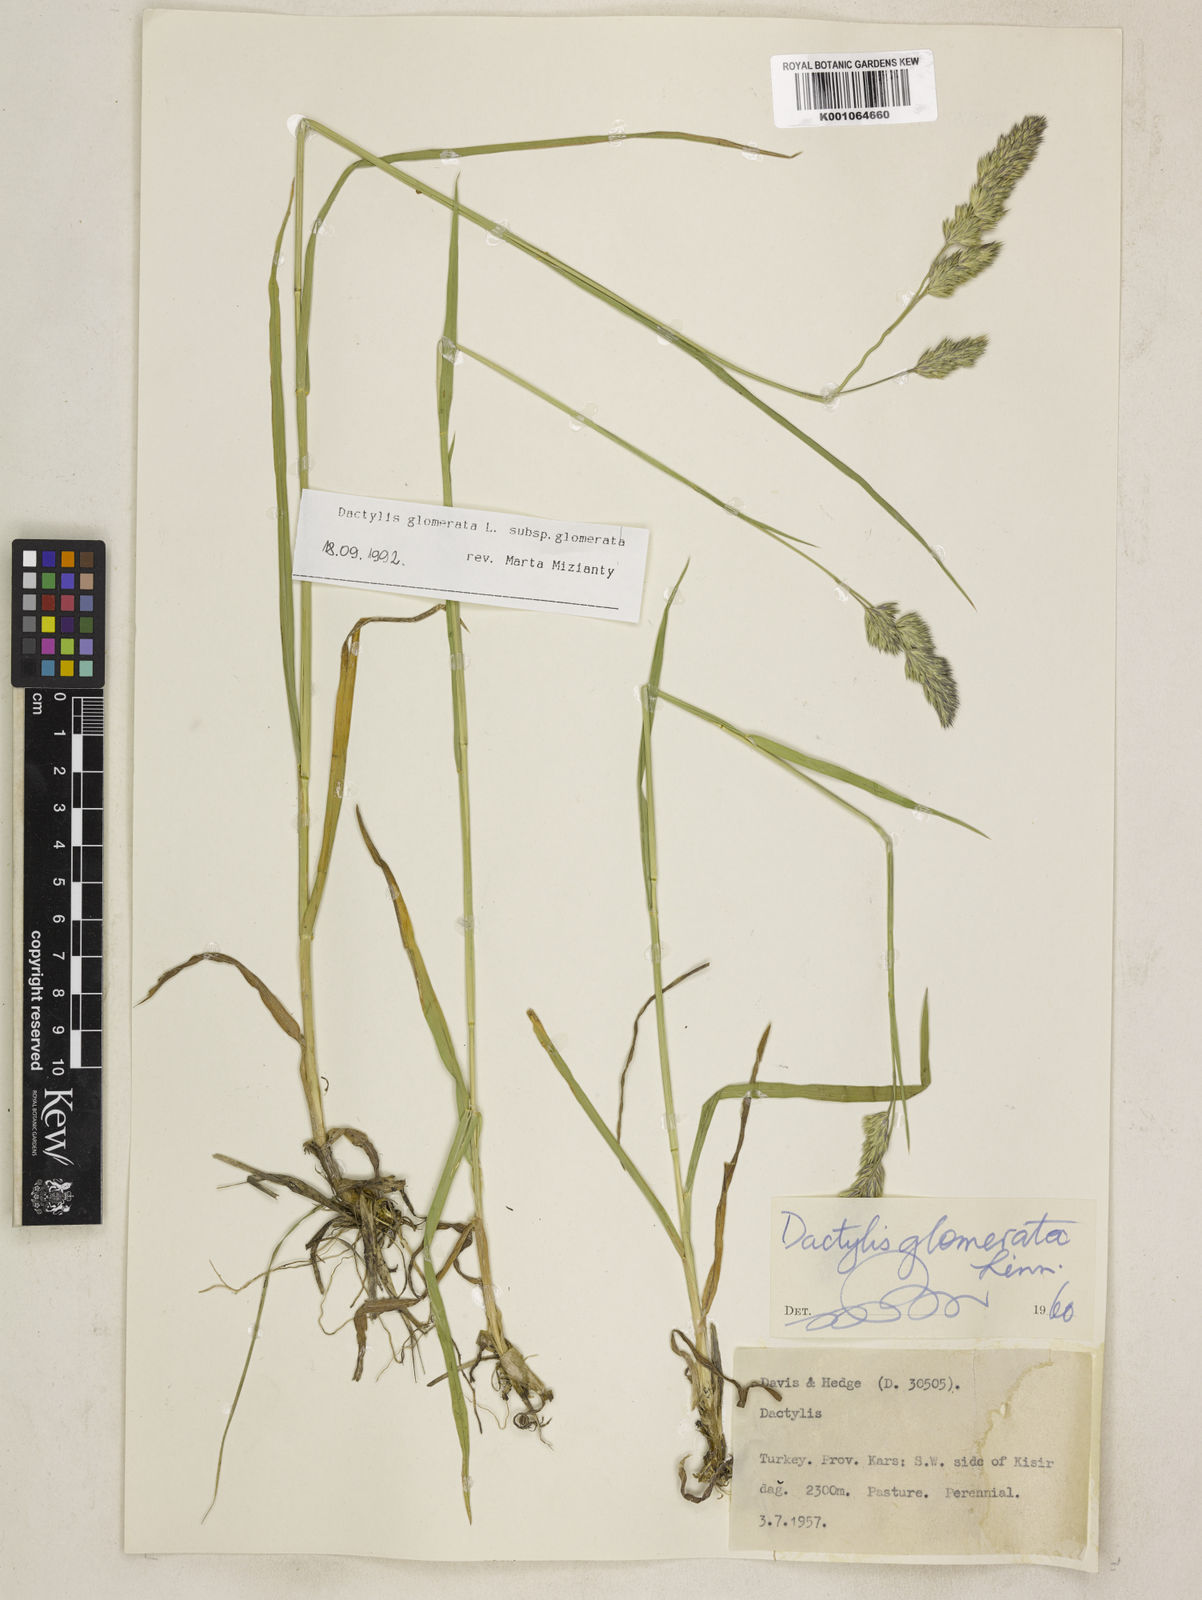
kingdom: Plantae
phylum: Tracheophyta
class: Liliopsida
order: Poales
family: Poaceae
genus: Dactylis
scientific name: Dactylis glomerata
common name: Orchardgrass
